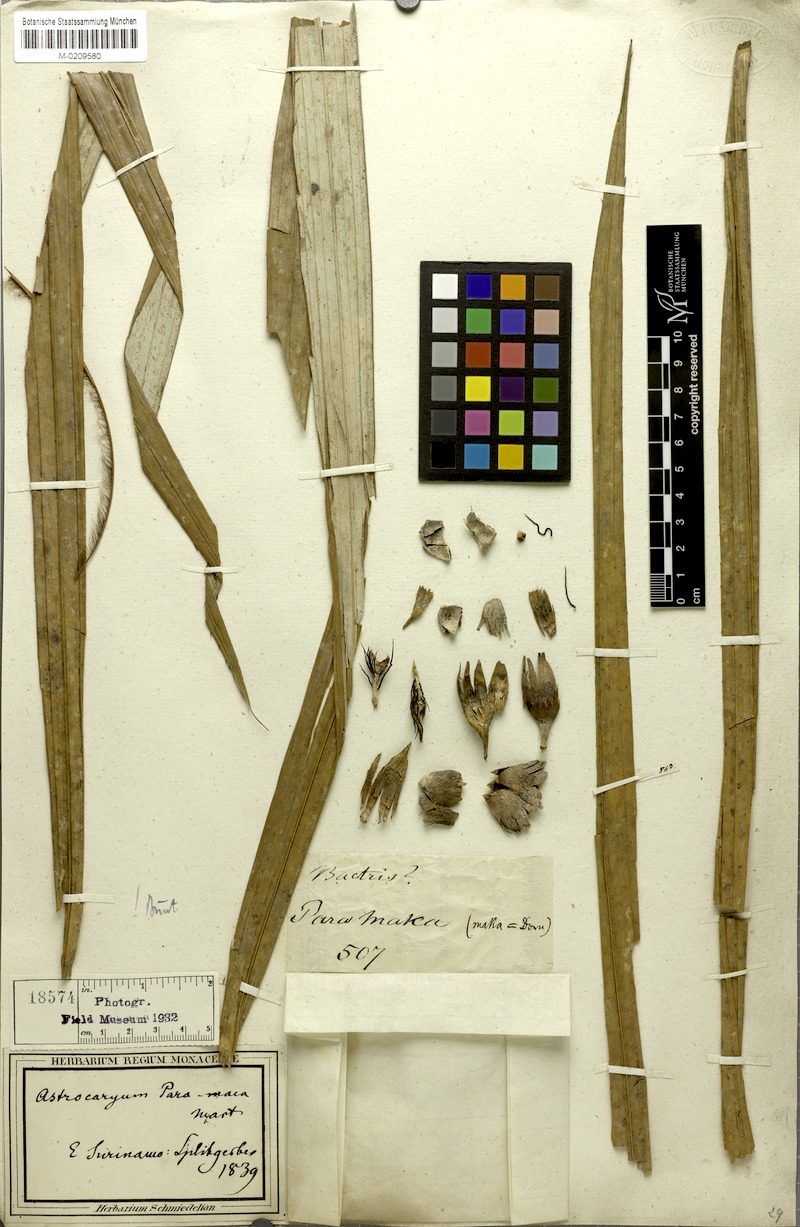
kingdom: Plantae
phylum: Tracheophyta
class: Liliopsida
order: Arecales
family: Arecaceae
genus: Astrocaryum
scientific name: Astrocaryum paramaca
